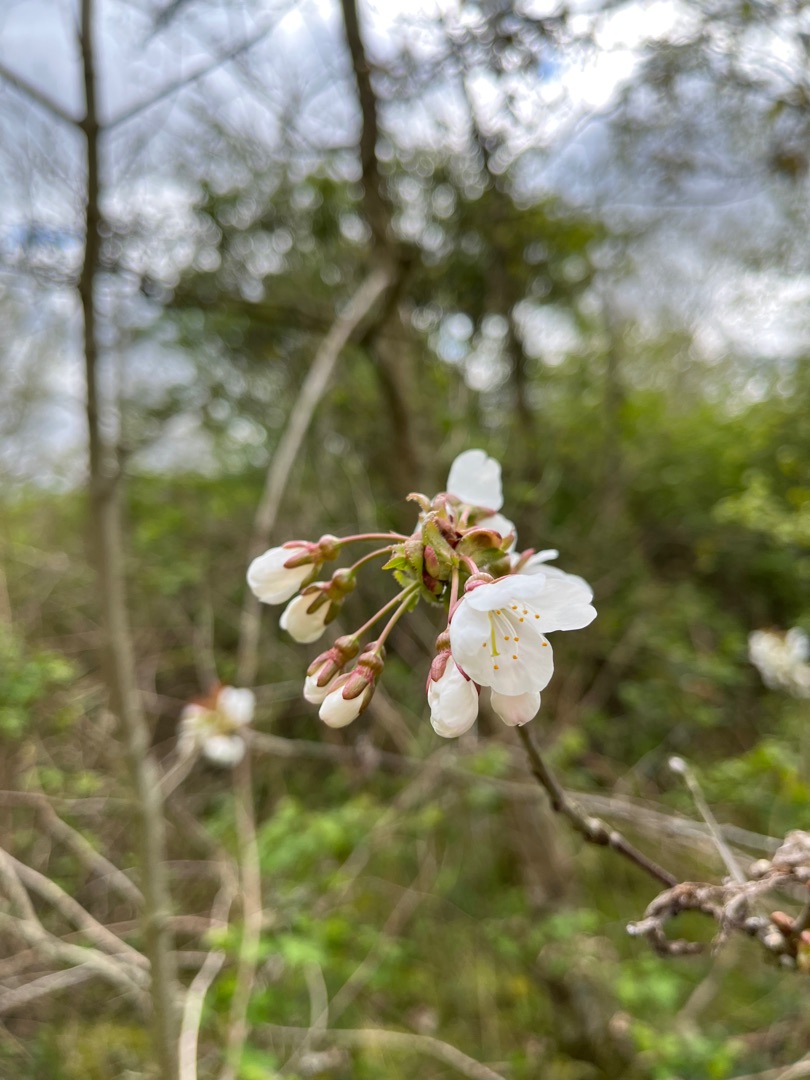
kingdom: Plantae
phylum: Tracheophyta
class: Magnoliopsida
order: Rosales
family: Rosaceae
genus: Prunus
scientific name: Prunus avium
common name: Fugle-kirsebær
